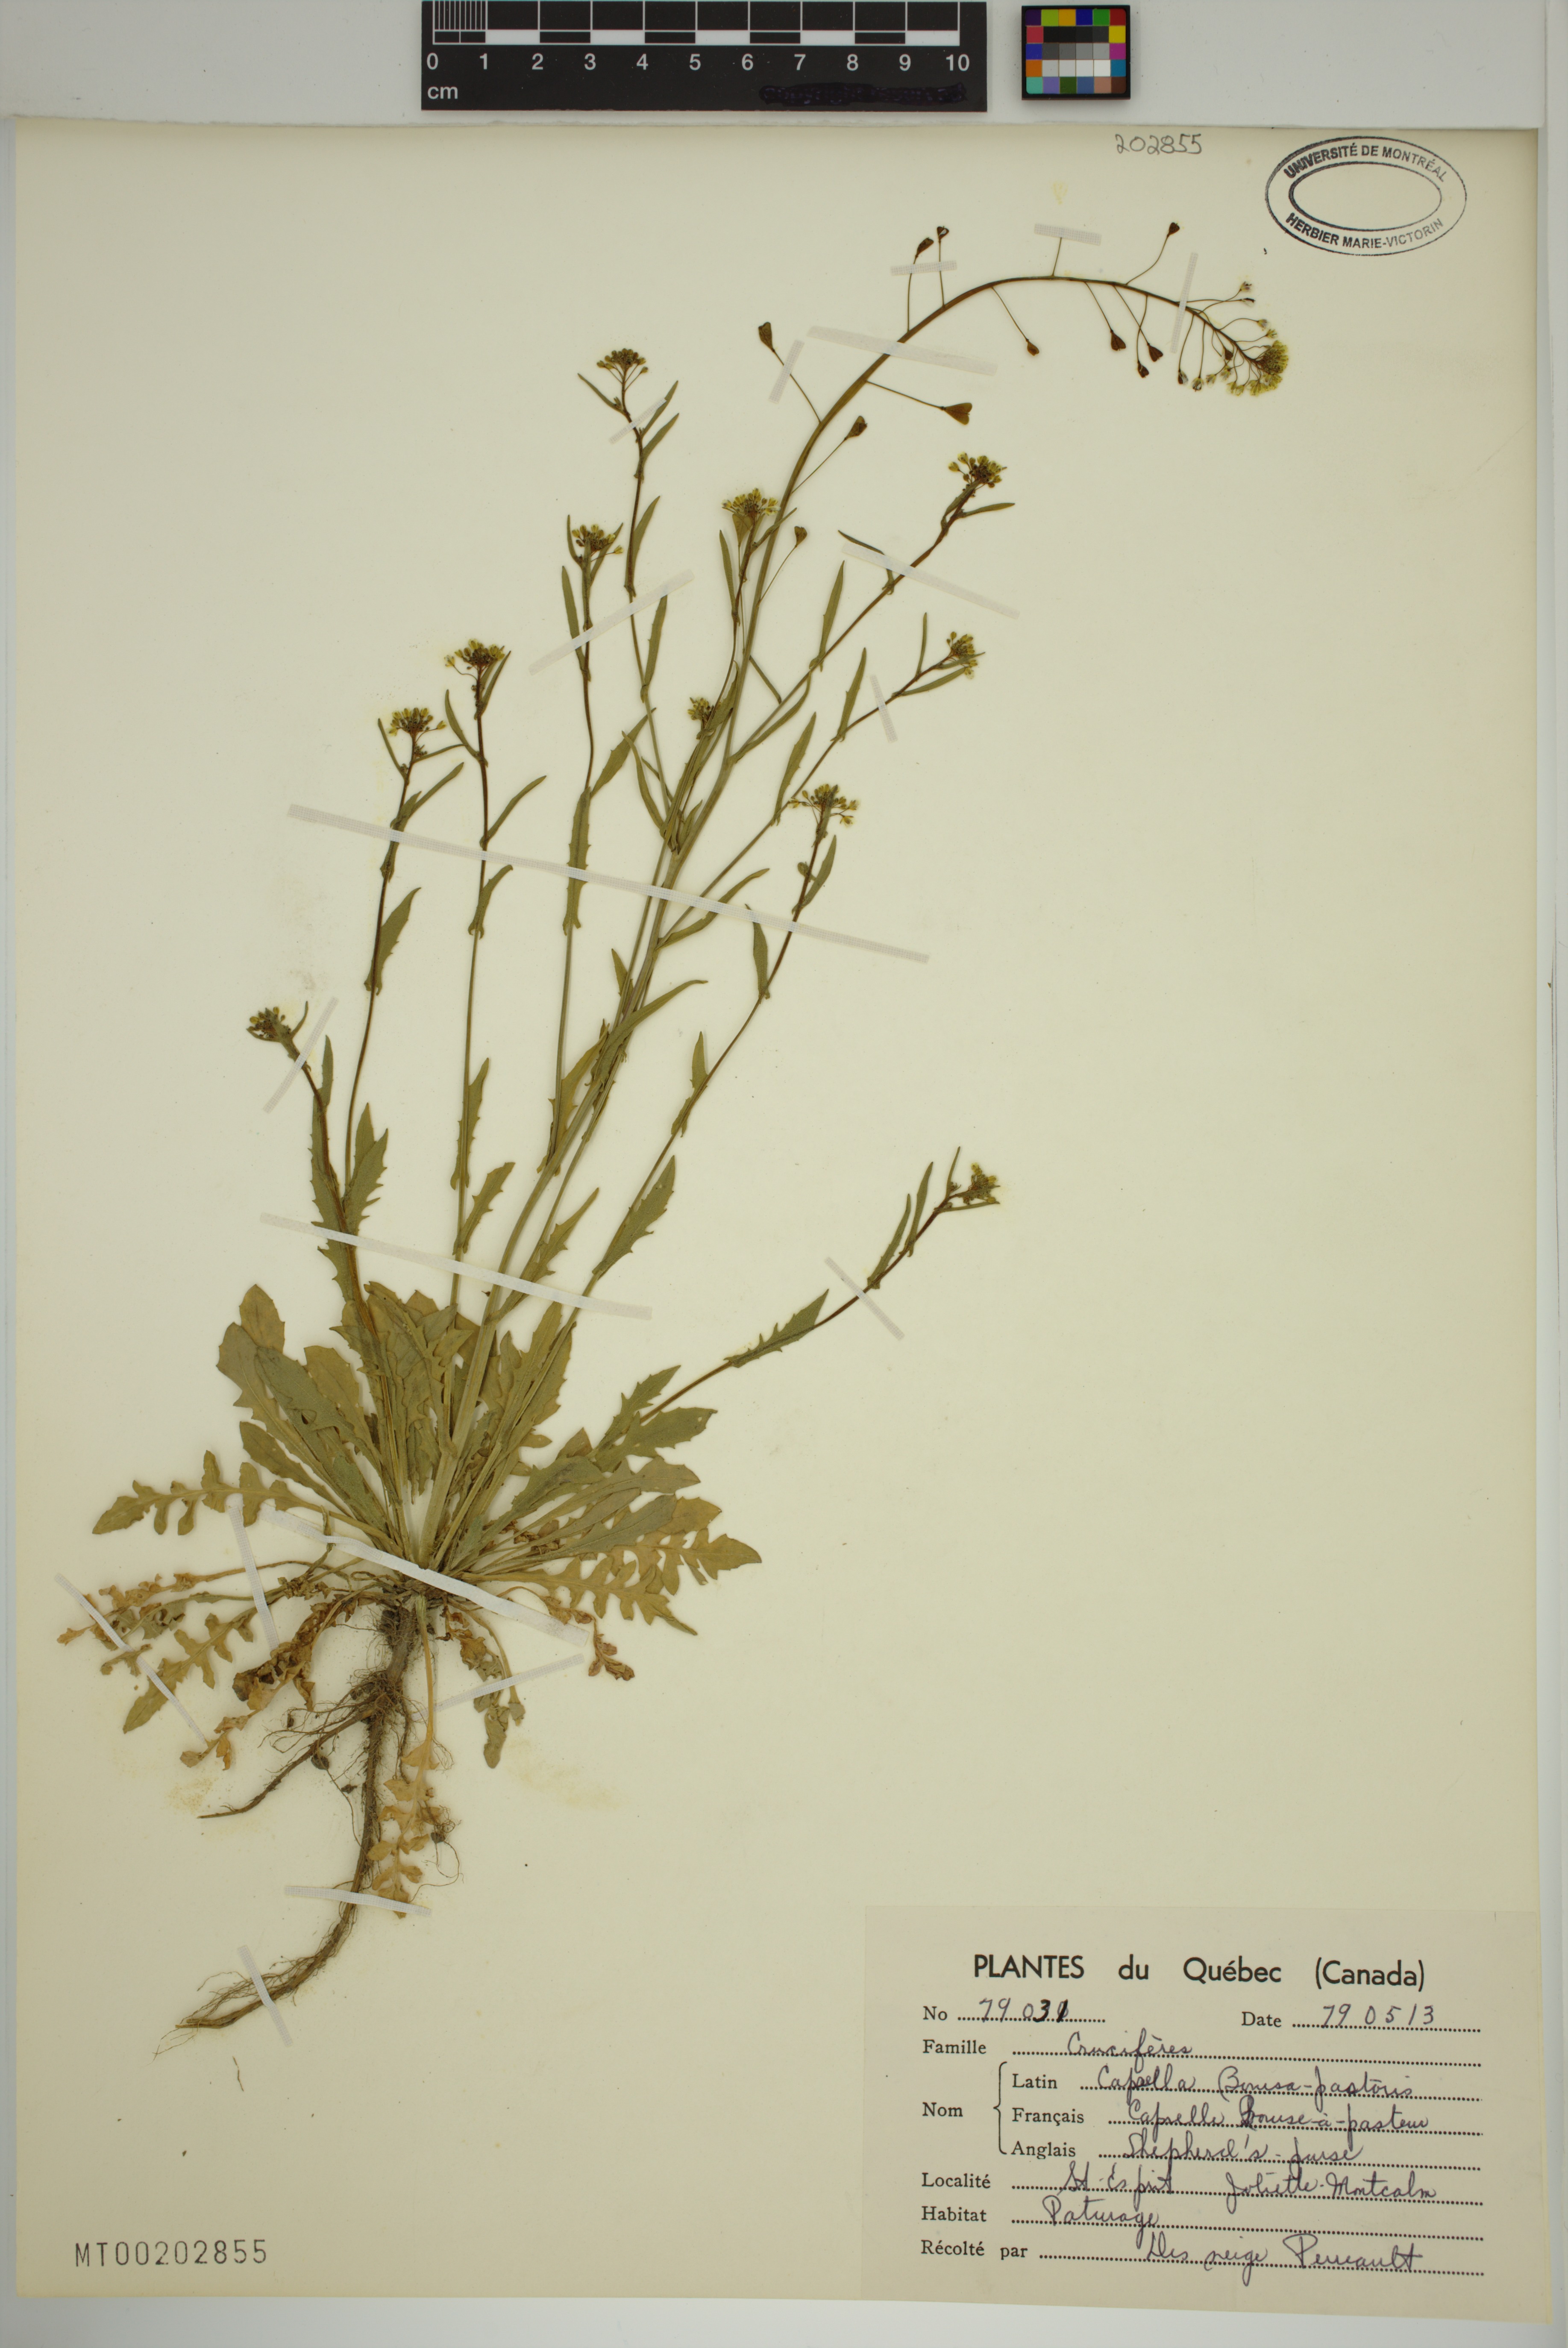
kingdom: Plantae
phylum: Tracheophyta
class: Magnoliopsida
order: Brassicales
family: Brassicaceae
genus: Capsella
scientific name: Capsella bursa-pastoris
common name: Shepherd's purse
